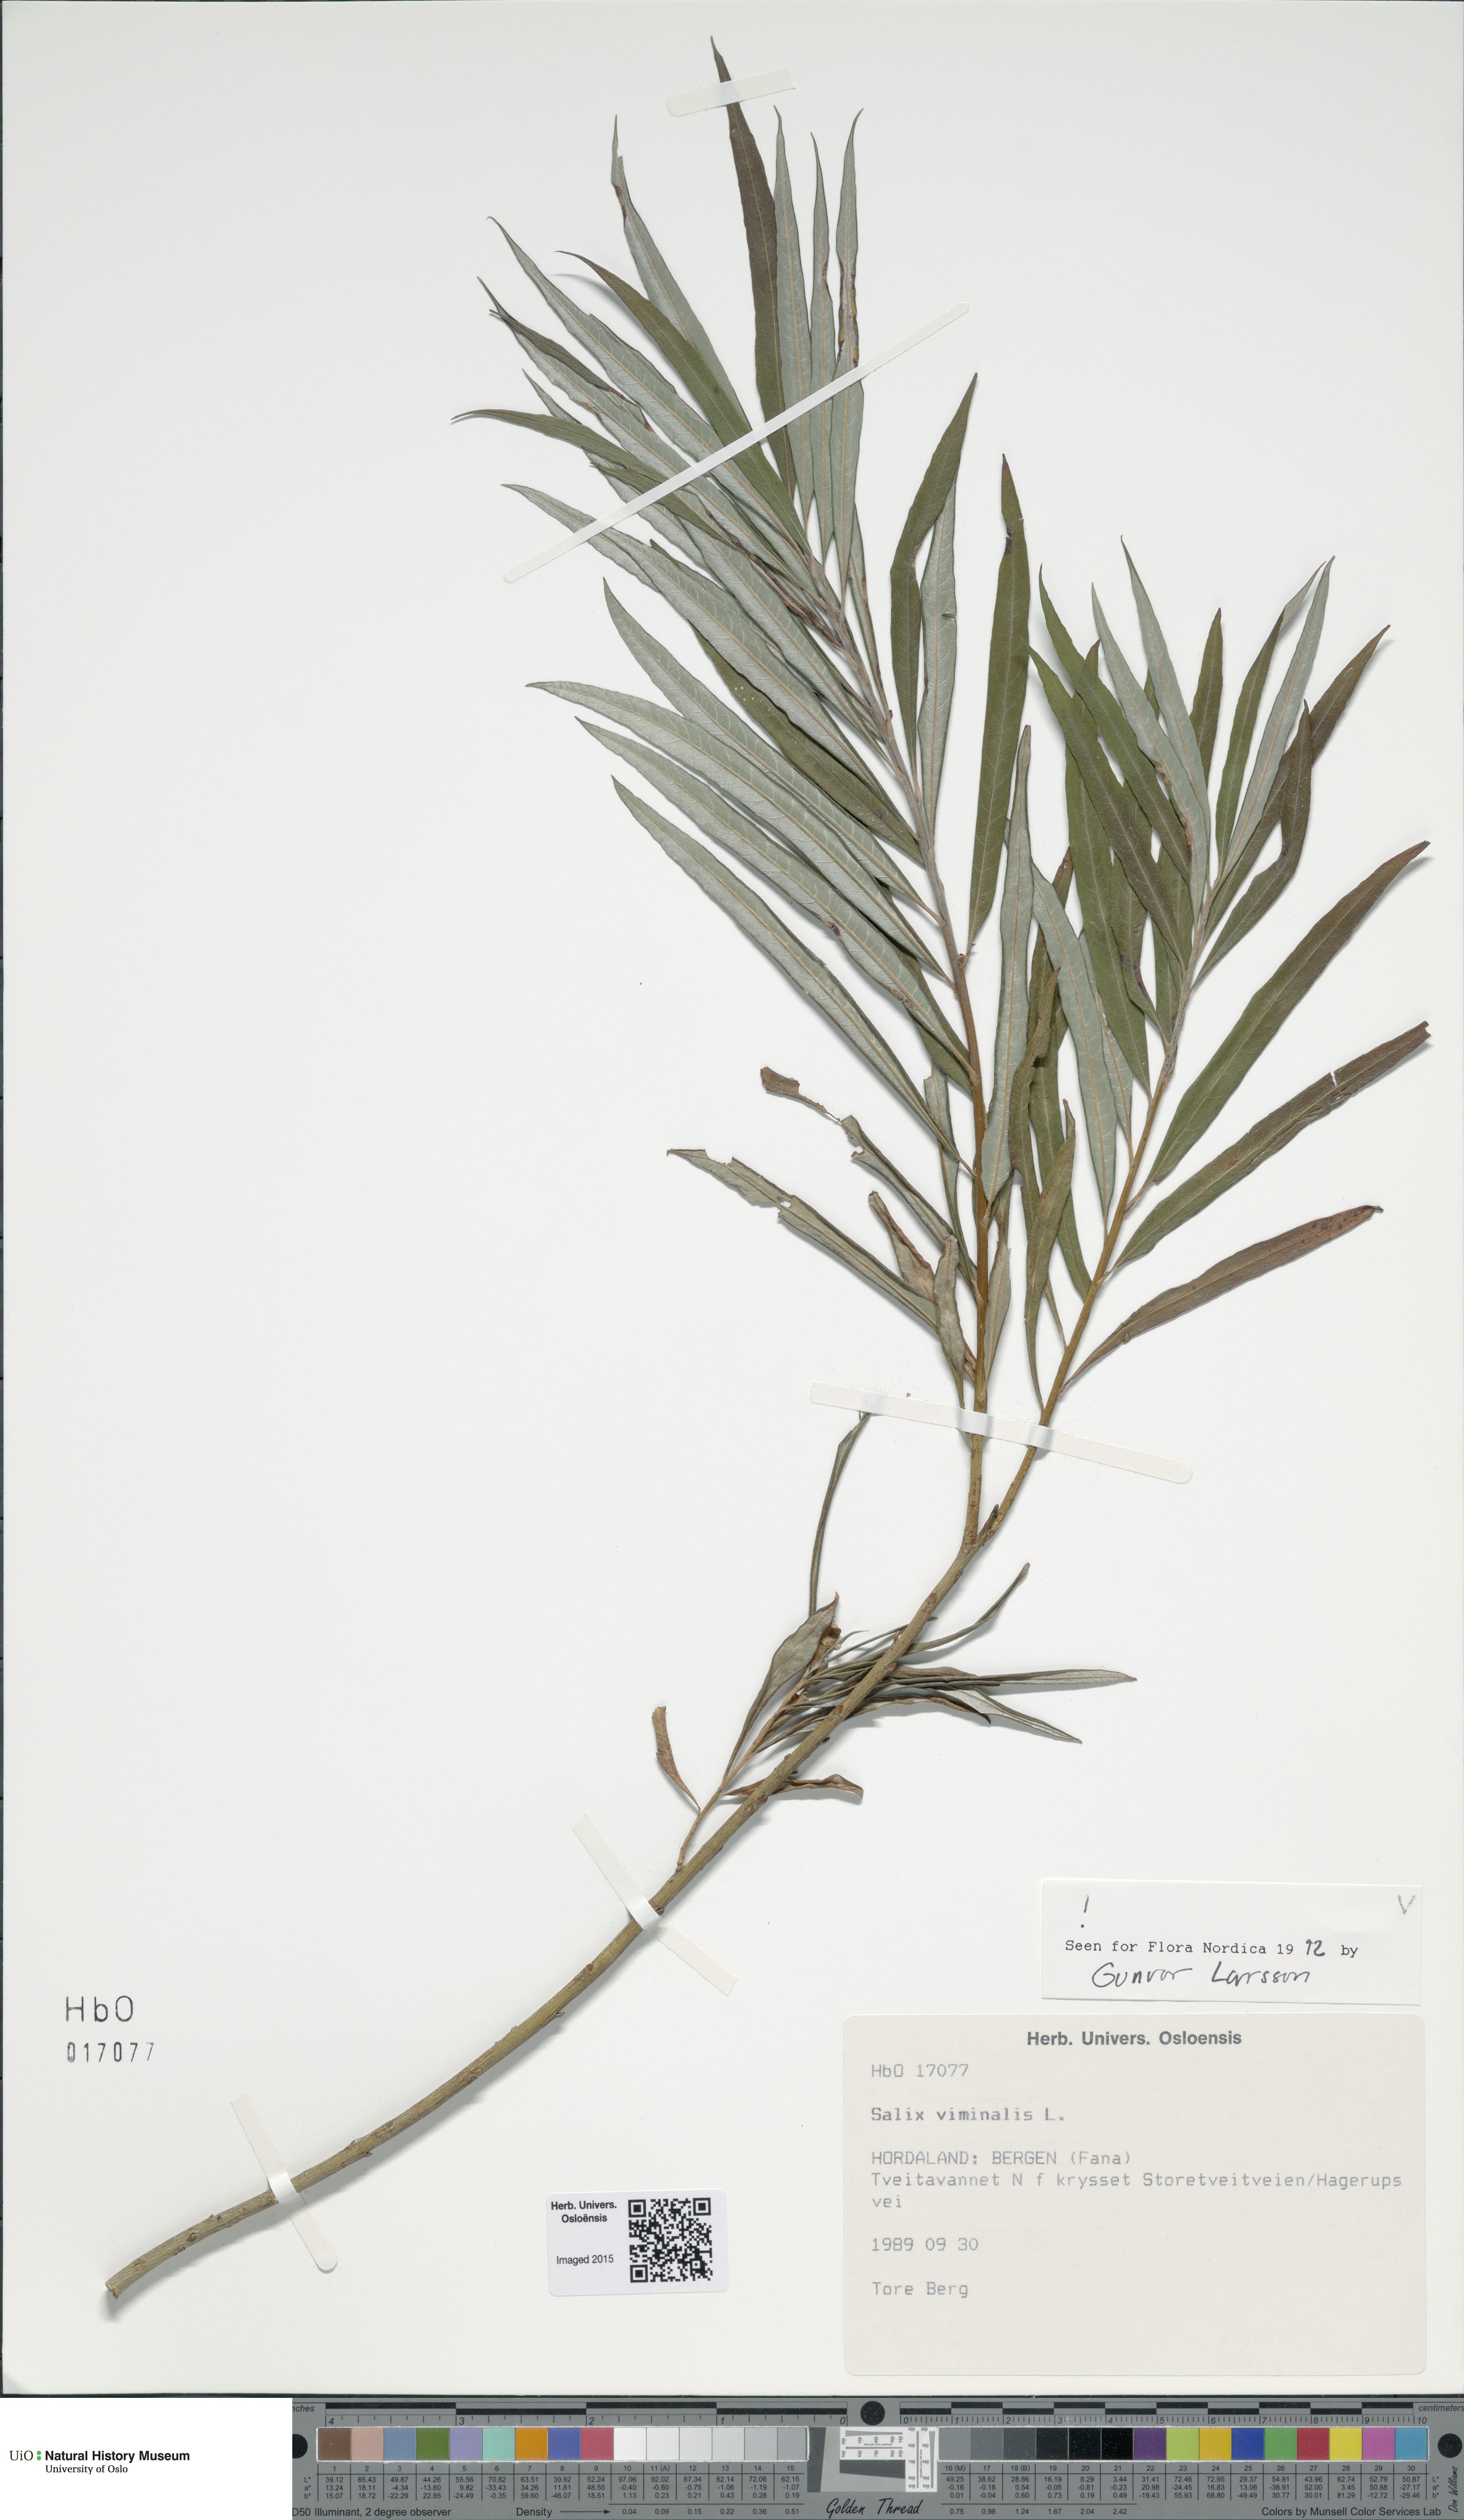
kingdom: Plantae
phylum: Tracheophyta
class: Magnoliopsida
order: Malpighiales
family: Salicaceae
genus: Salix
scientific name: Salix viminalis
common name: Osier
